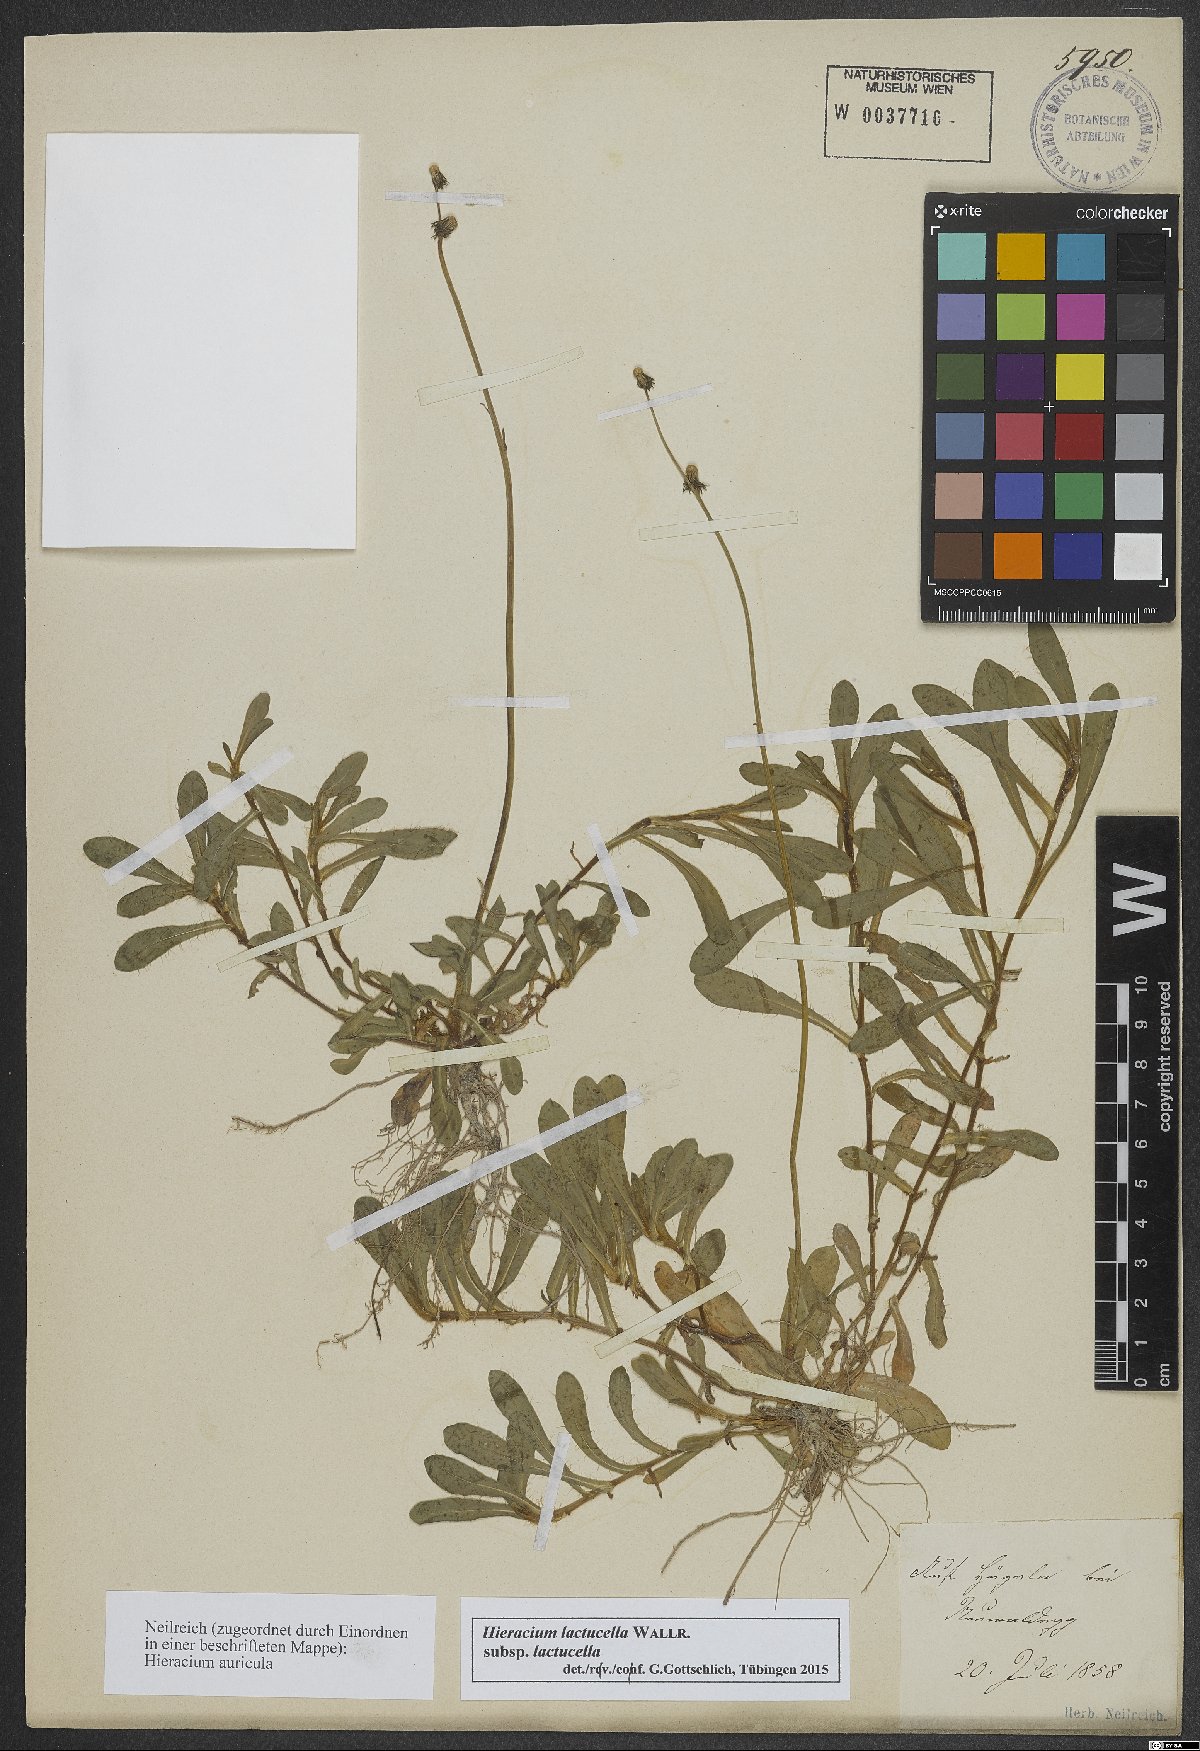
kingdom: Plantae
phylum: Tracheophyta
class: Magnoliopsida
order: Asterales
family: Asteraceae
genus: Pilosella
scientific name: Pilosella lactucella
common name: Glaucous fox-and-cubs
